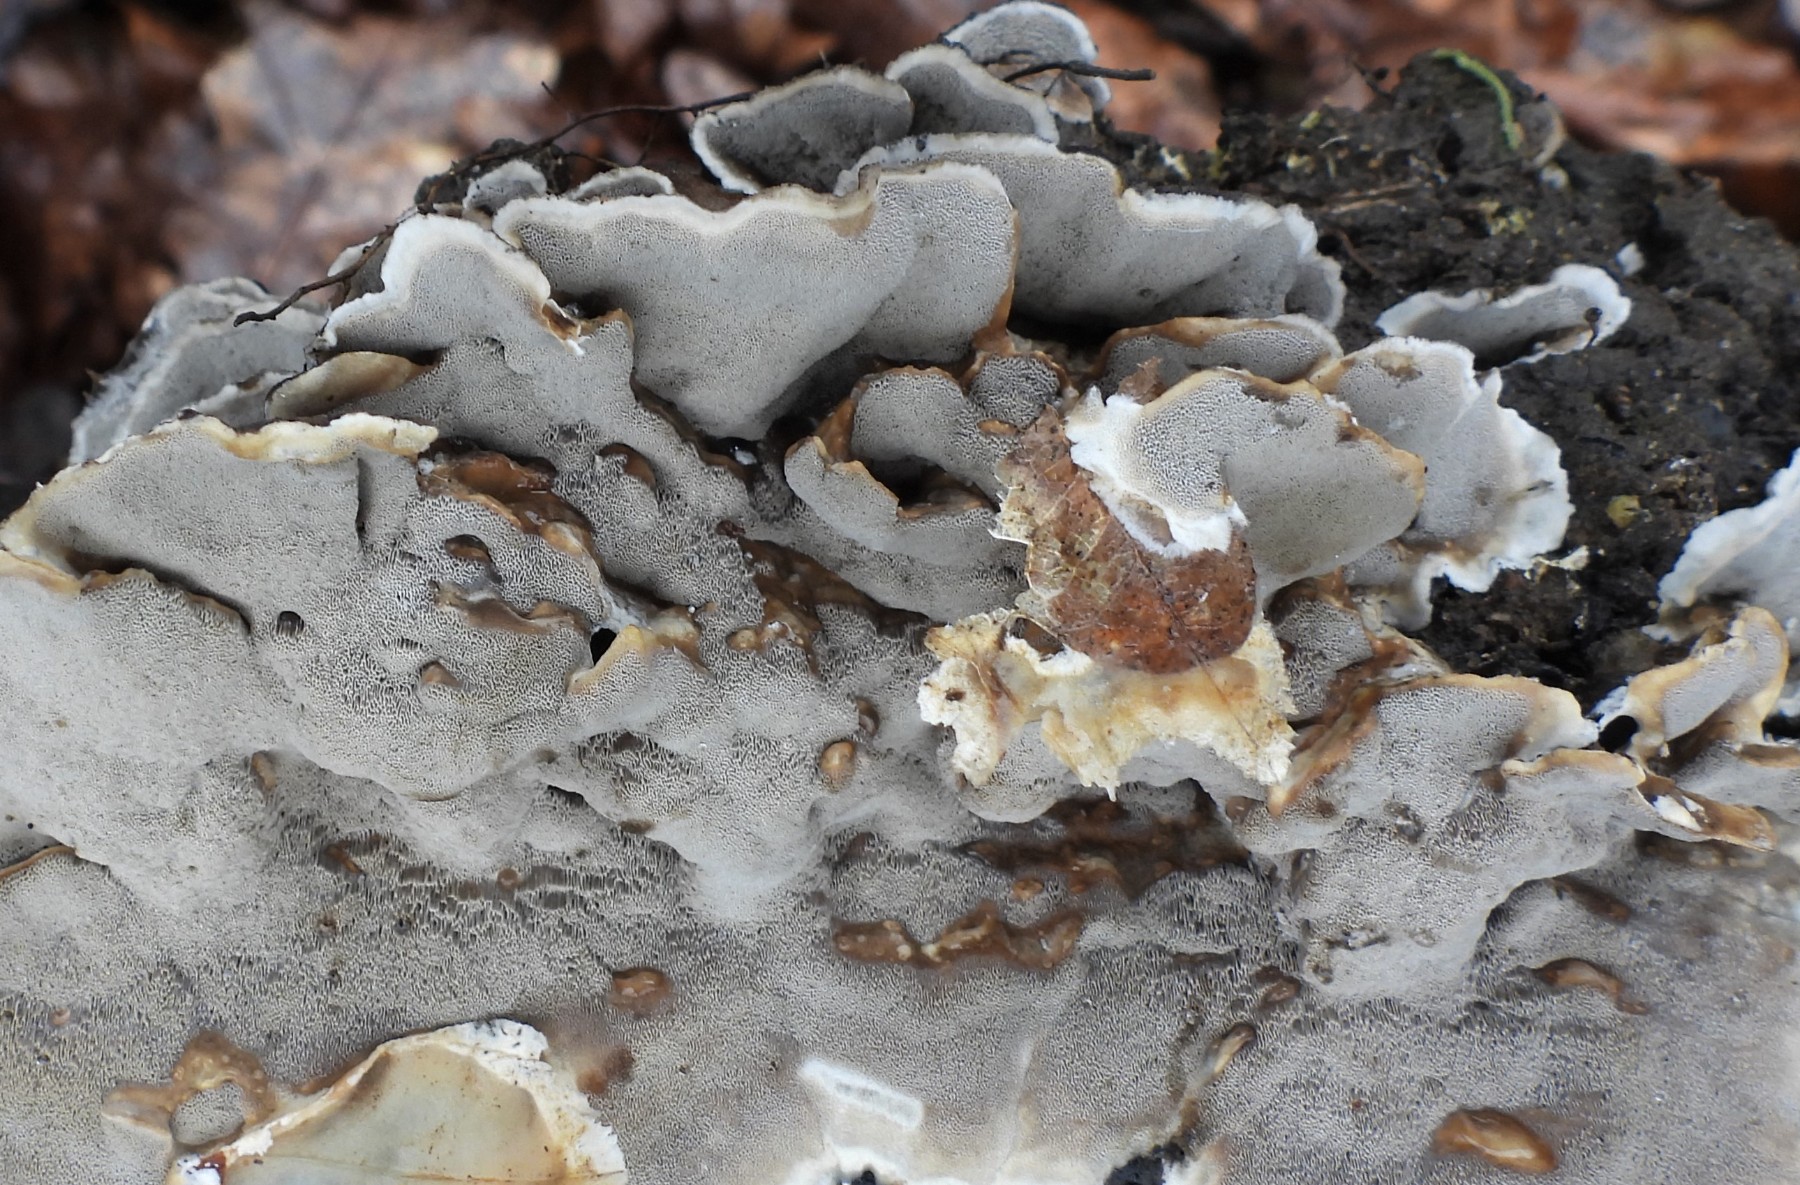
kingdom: Fungi
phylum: Basidiomycota
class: Agaricomycetes
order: Polyporales
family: Phanerochaetaceae
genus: Bjerkandera
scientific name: Bjerkandera adusta
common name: sveden sodporesvamp
